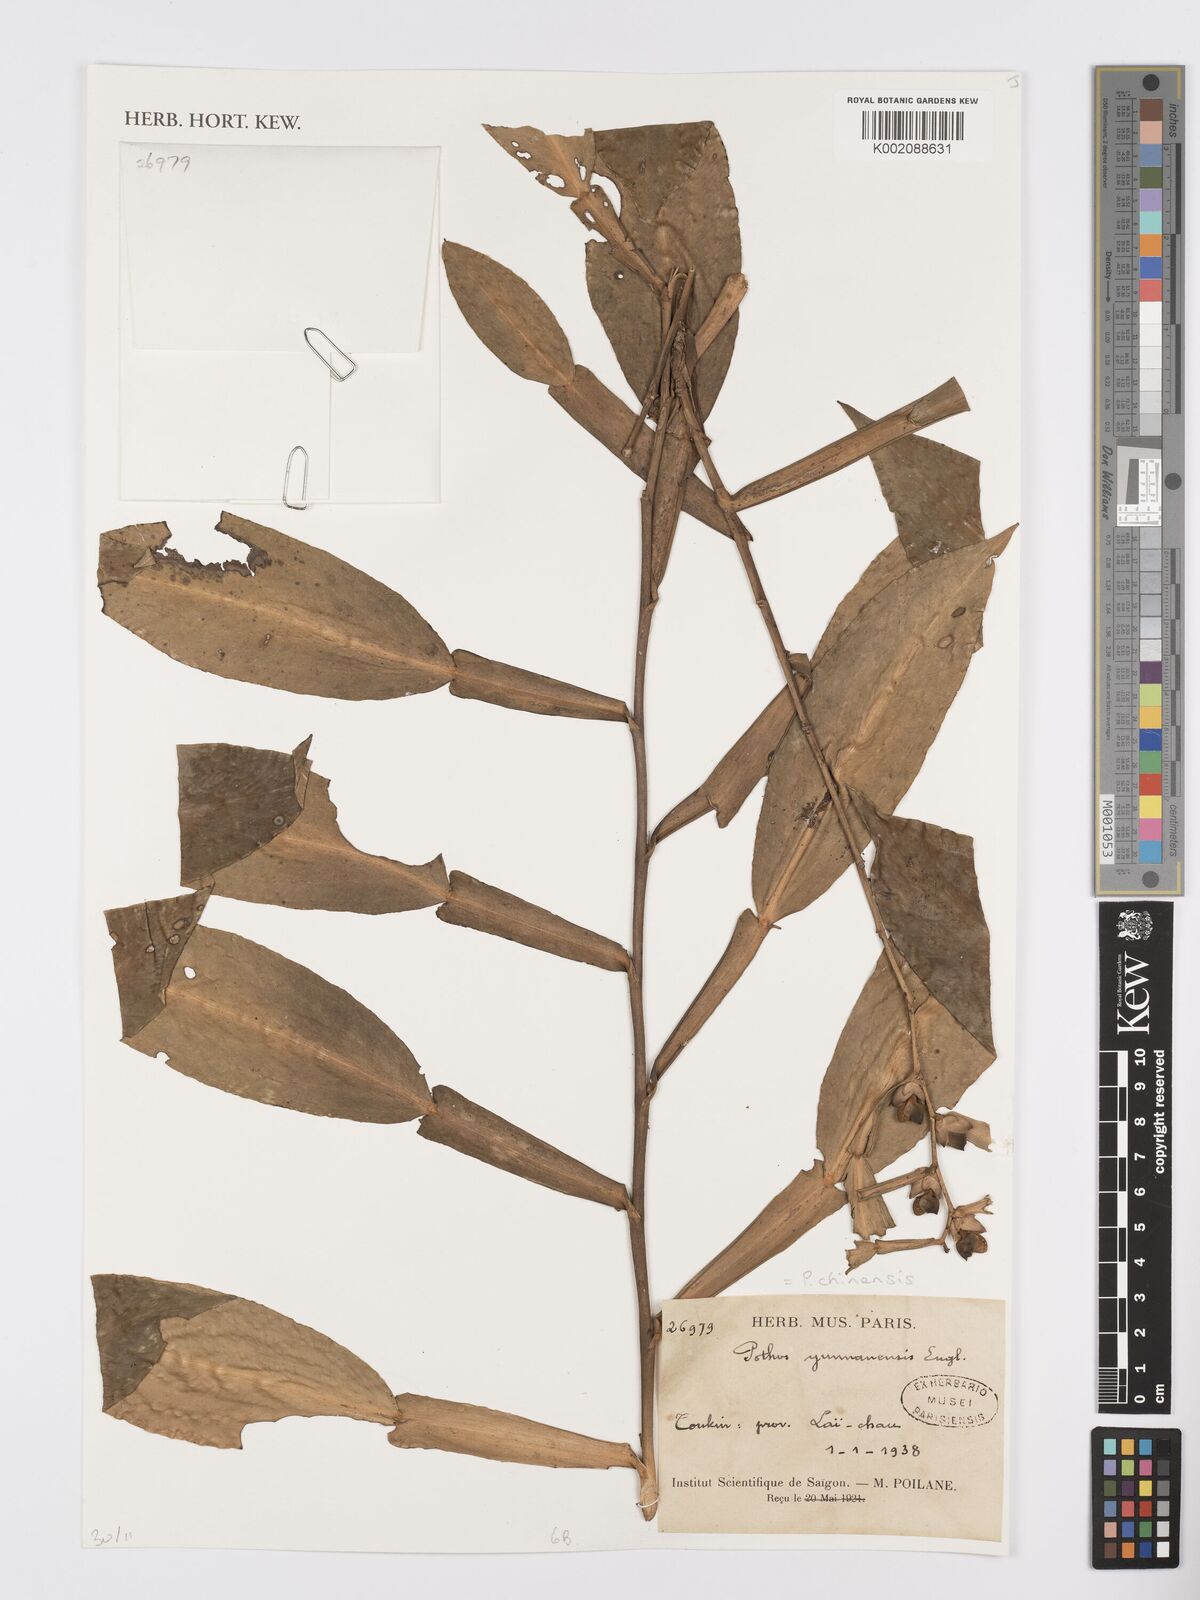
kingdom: Plantae
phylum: Tracheophyta
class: Liliopsida
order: Alismatales
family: Araceae
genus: Pothos
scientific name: Pothos chinensis
